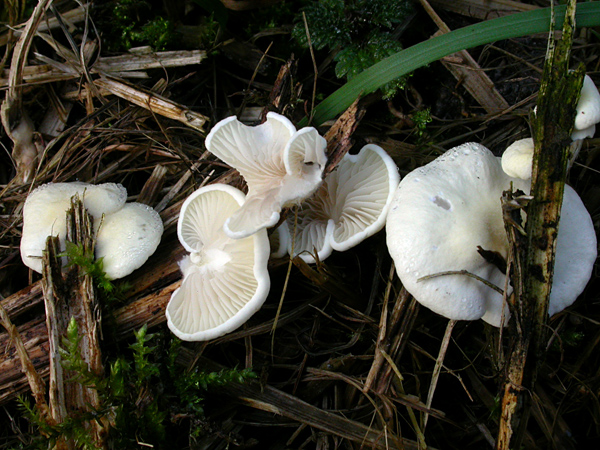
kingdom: Fungi
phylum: Basidiomycota
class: Agaricomycetes
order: Agaricales
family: Crepidotaceae
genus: Crepidotus
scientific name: Crepidotus luteolus
